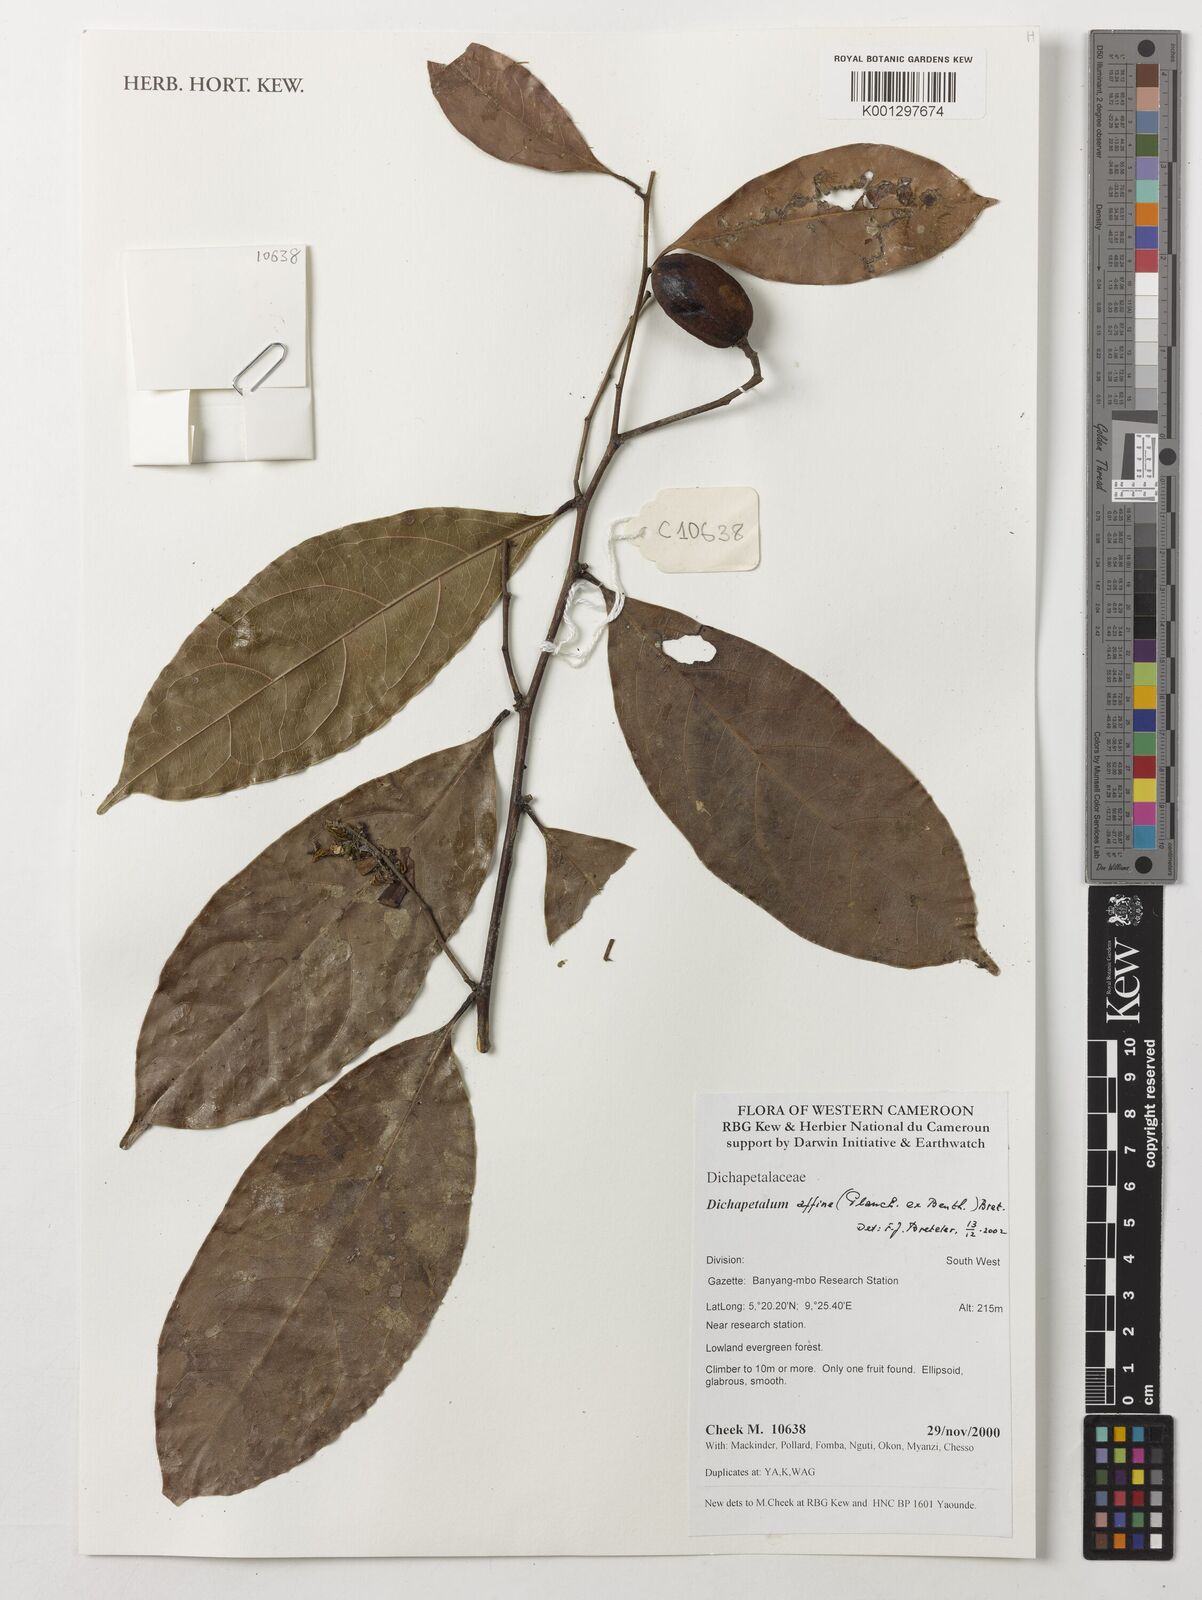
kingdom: Plantae
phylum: Tracheophyta
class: Magnoliopsida
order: Malpighiales
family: Dichapetalaceae
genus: Dichapetalum
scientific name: Dichapetalum affine
